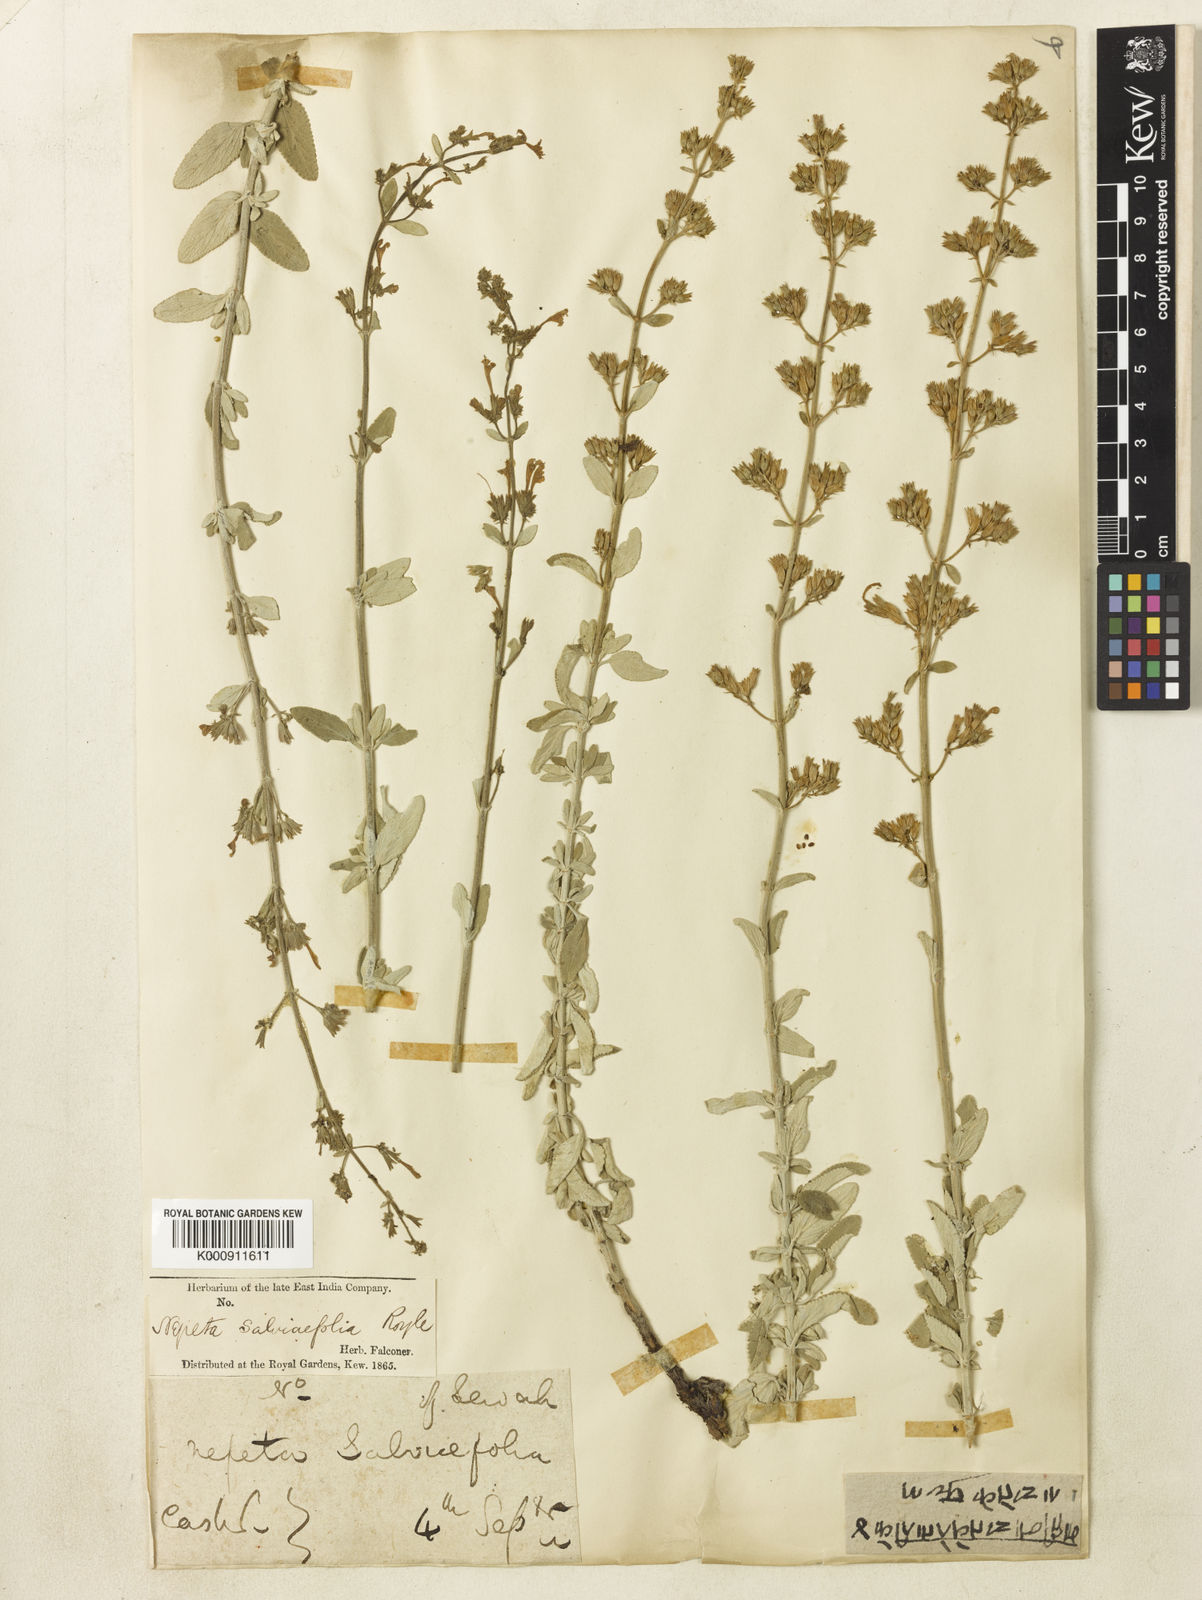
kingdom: Plantae
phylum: Tracheophyta
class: Magnoliopsida
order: Lamiales
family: Lamiaceae
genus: Nepeta
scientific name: Nepeta
